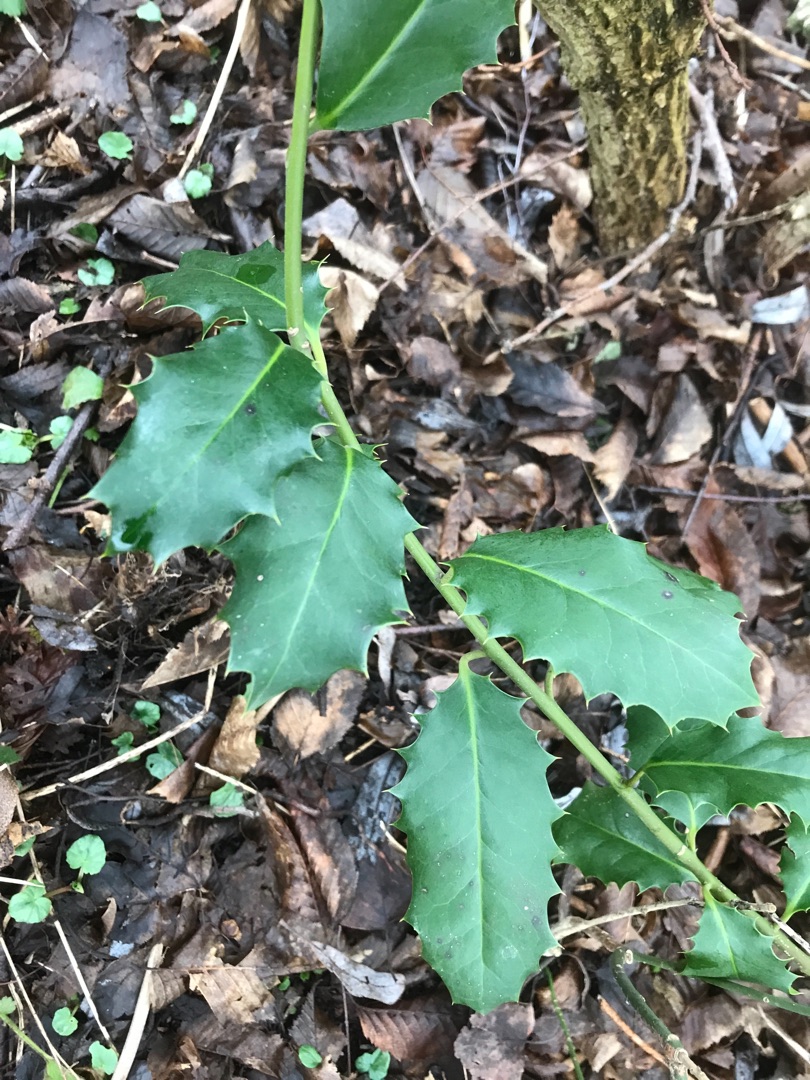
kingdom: Plantae
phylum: Tracheophyta
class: Magnoliopsida
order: Aquifoliales
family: Aquifoliaceae
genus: Ilex
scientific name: Ilex aquifolium
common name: Kristtorn
